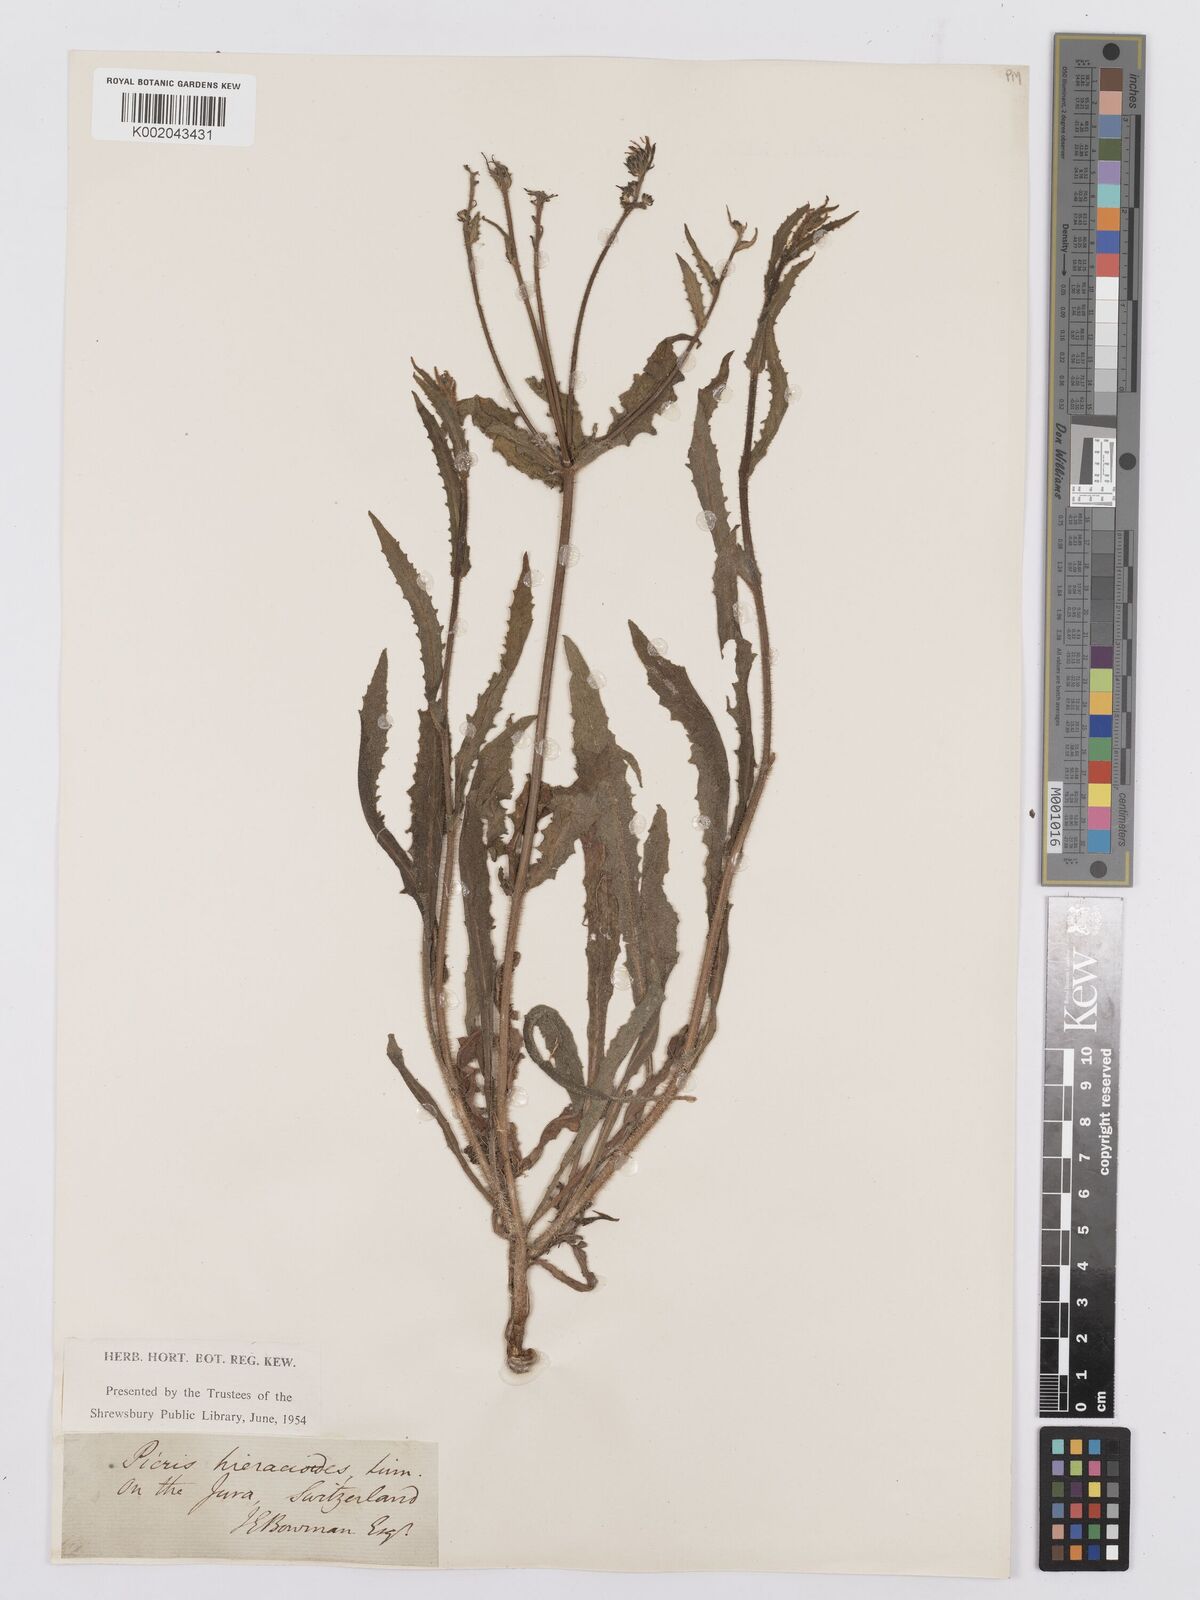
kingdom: Plantae
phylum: Tracheophyta
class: Magnoliopsida
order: Asterales
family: Asteraceae
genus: Picris
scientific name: Picris hieracioides
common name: Hawkweed oxtongue
